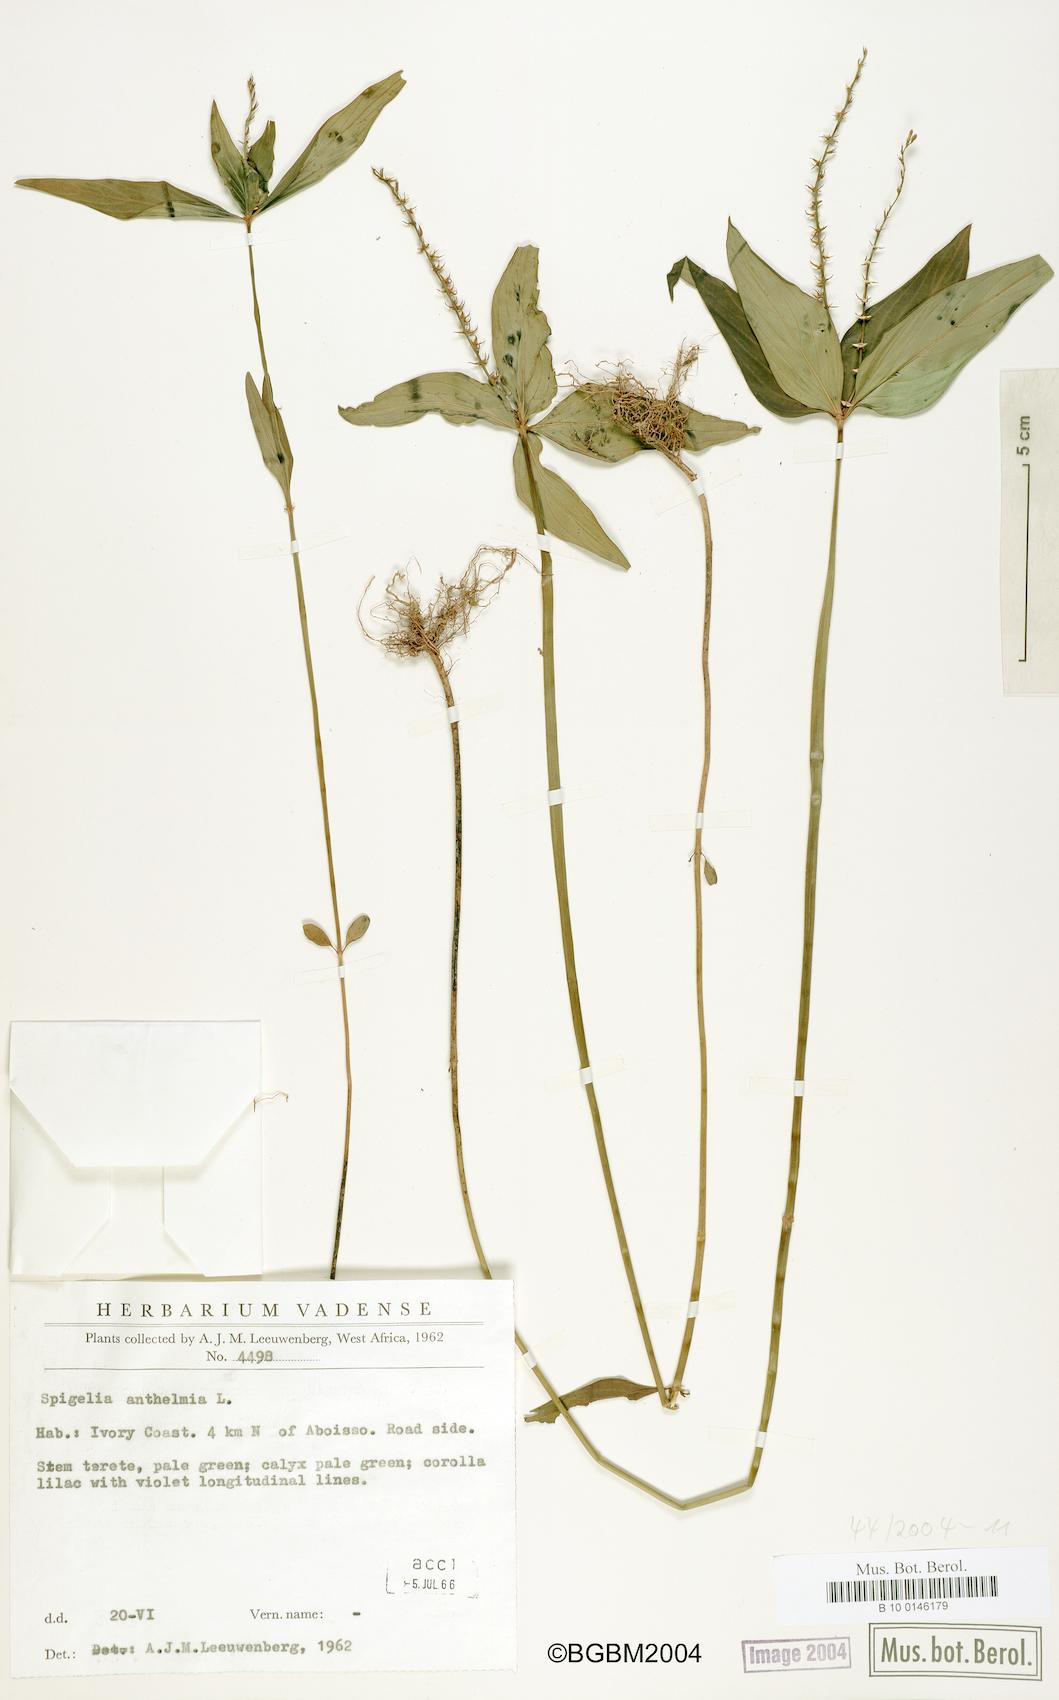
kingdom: Plantae
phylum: Tracheophyta
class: Magnoliopsida
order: Gentianales
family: Loganiaceae
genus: Spigelia
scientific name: Spigelia anthelmia
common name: West indian-pink
